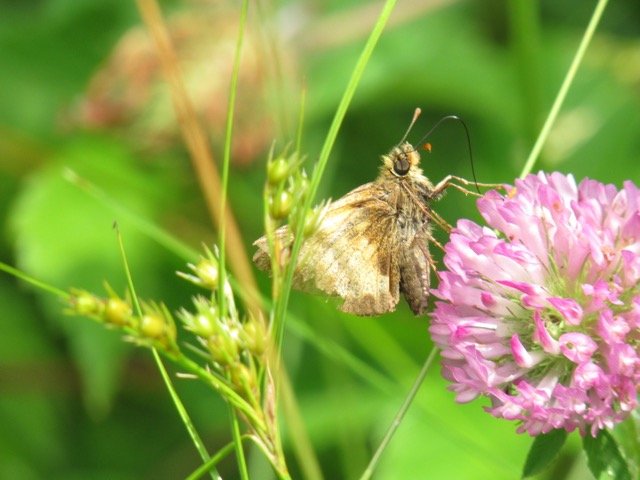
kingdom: Animalia
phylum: Arthropoda
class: Insecta
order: Lepidoptera
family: Hesperiidae
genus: Lon
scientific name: Lon hobomok
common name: Hobomok Skipper
